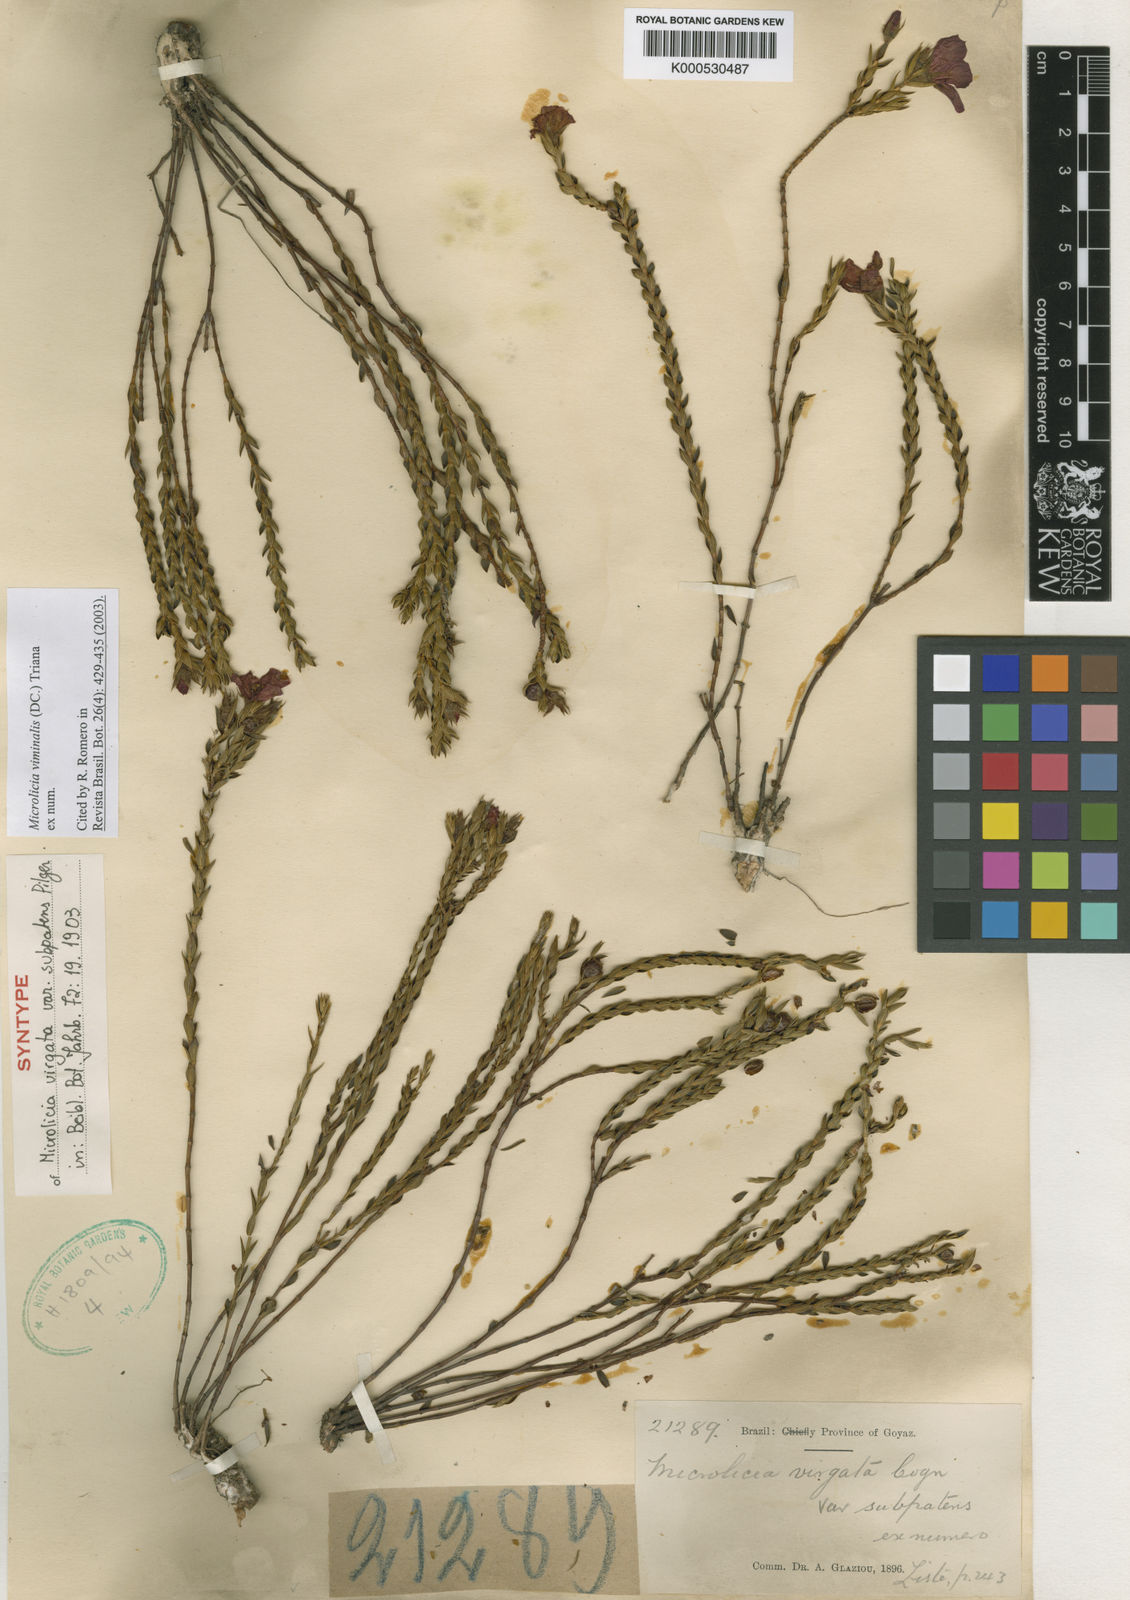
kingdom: Plantae
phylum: Tracheophyta
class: Magnoliopsida
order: Myrtales
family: Melastomataceae
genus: Microlicia
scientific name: Microlicia viminalis
